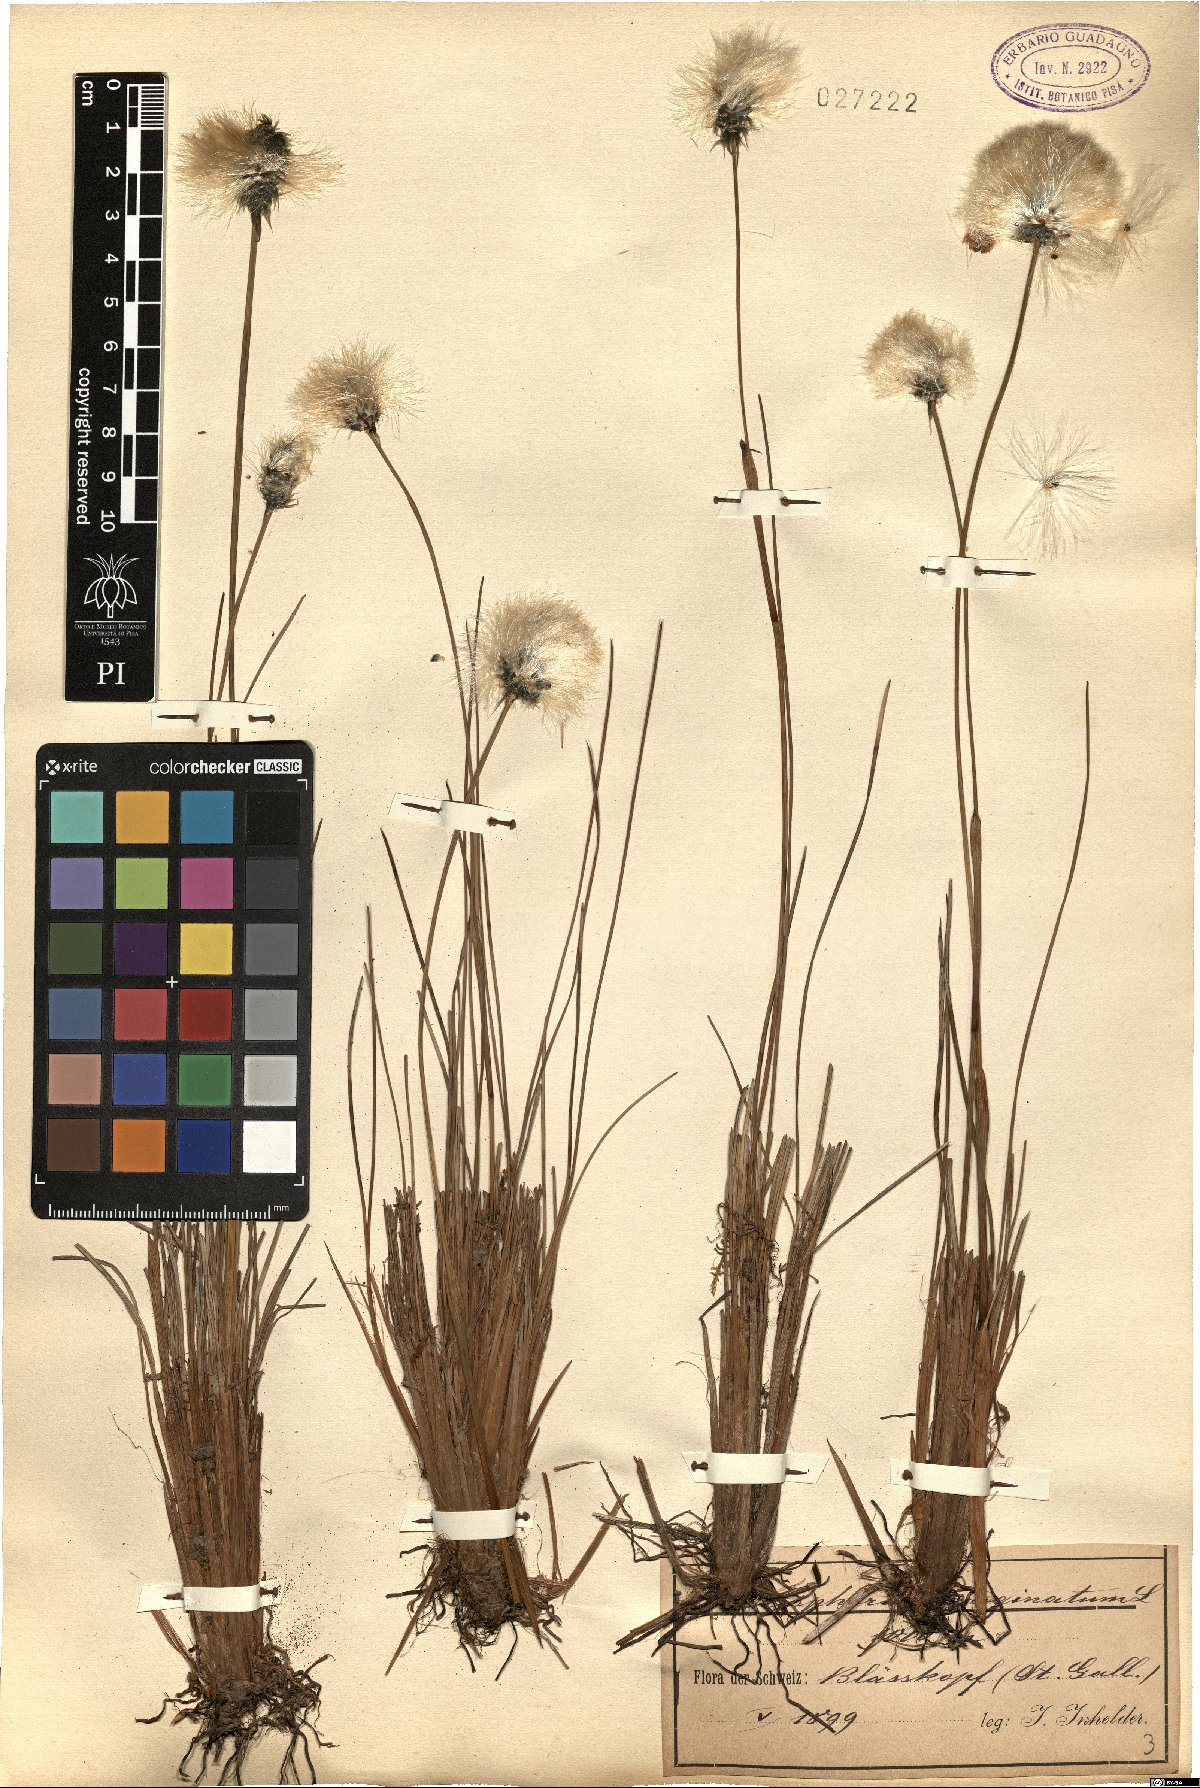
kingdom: Plantae
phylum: Tracheophyta
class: Liliopsida
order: Poales
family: Cyperaceae
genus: Eriophorum
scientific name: Eriophorum vaginatum
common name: Hare's-tail cottongrass
